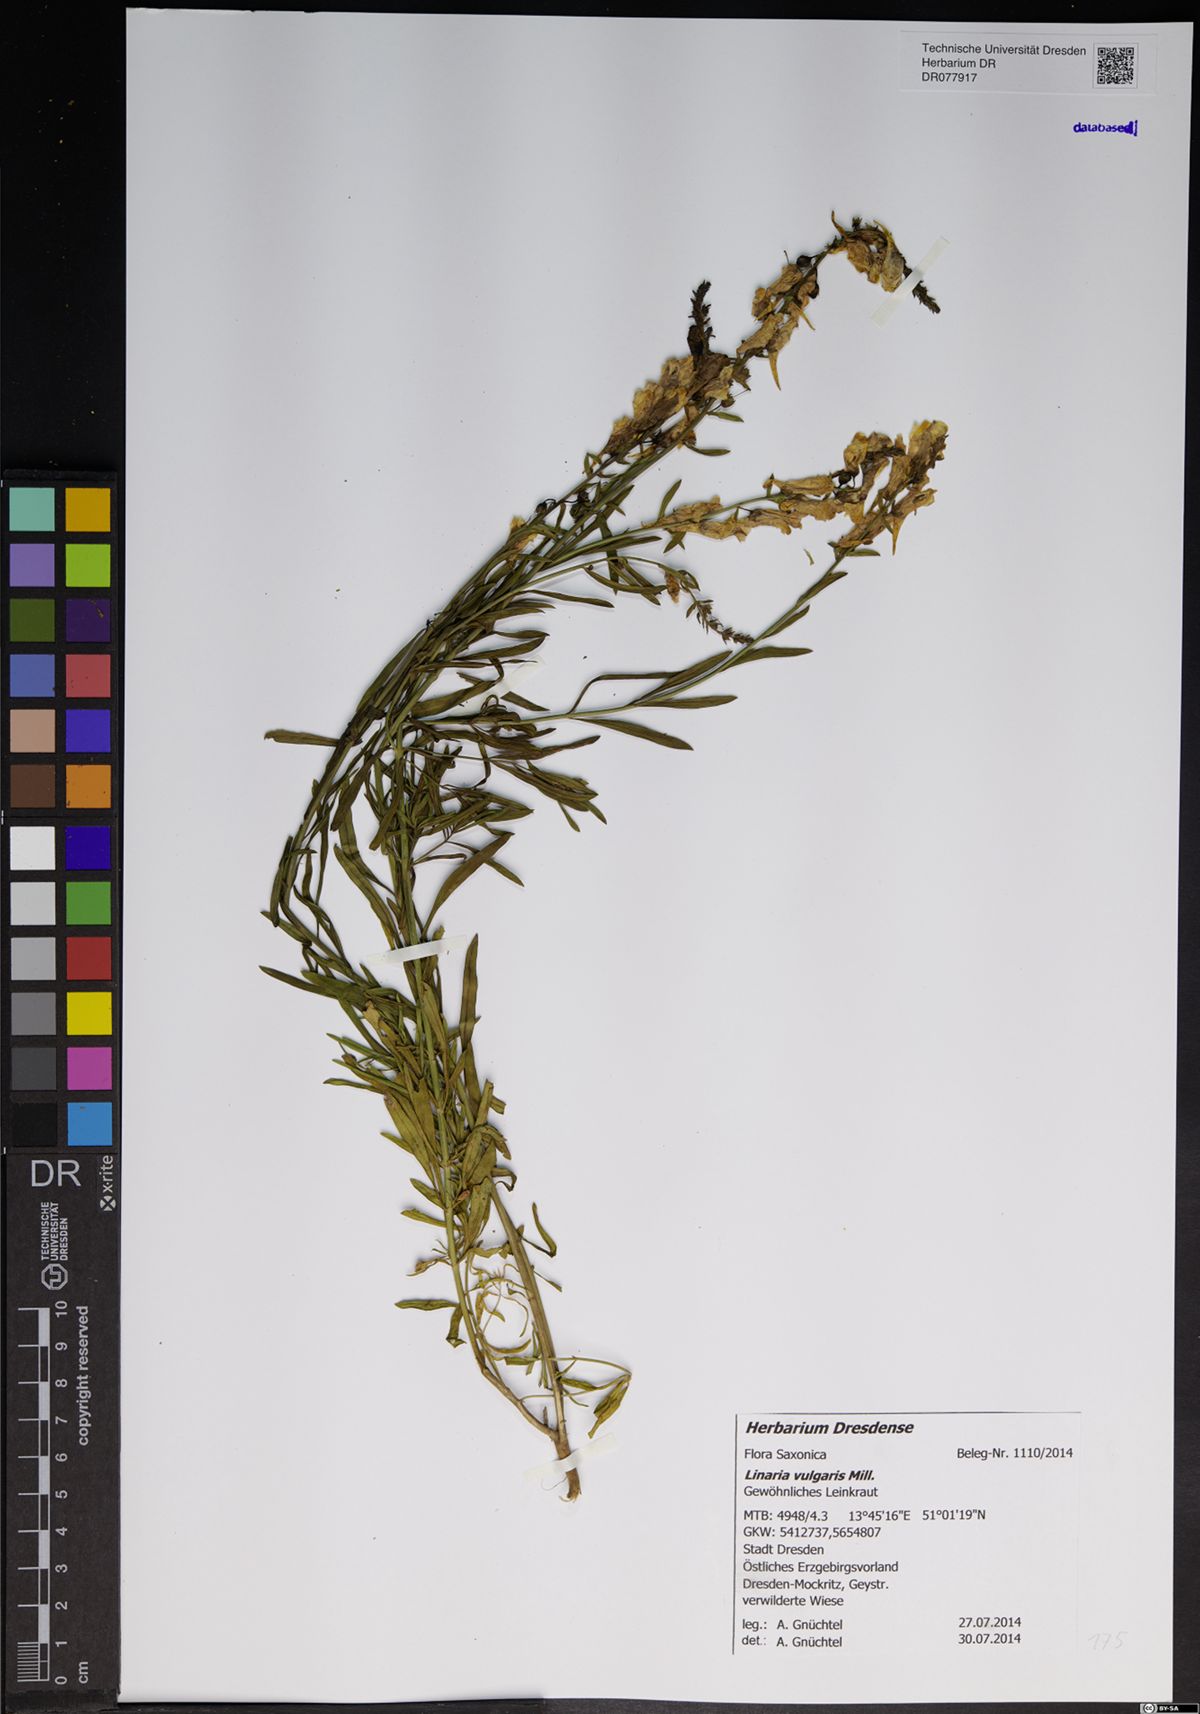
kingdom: Plantae
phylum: Tracheophyta
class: Magnoliopsida
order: Lamiales
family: Plantaginaceae
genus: Linaria
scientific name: Linaria vulgaris
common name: Butter and eggs
